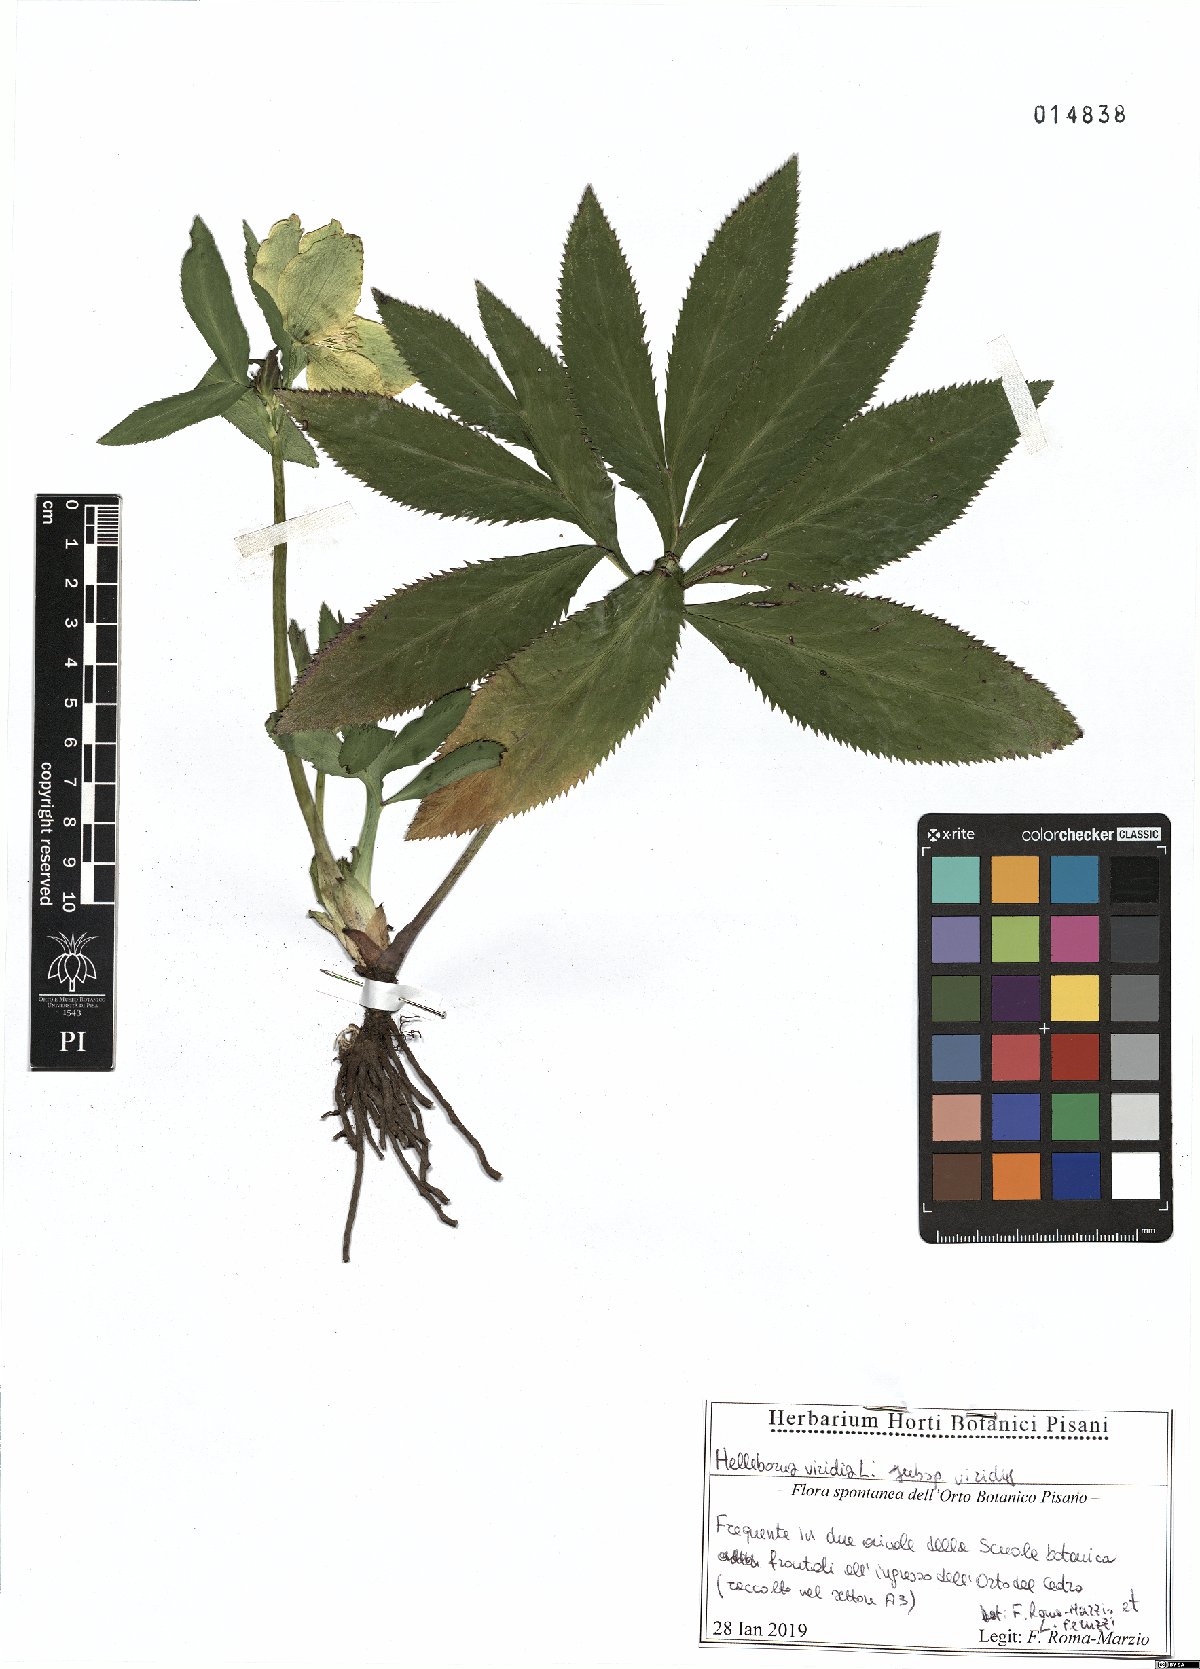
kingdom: Plantae
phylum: Tracheophyta
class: Magnoliopsida
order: Ranunculales
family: Ranunculaceae
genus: Helleborus
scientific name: Helleborus viridis
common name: Green hellebore
